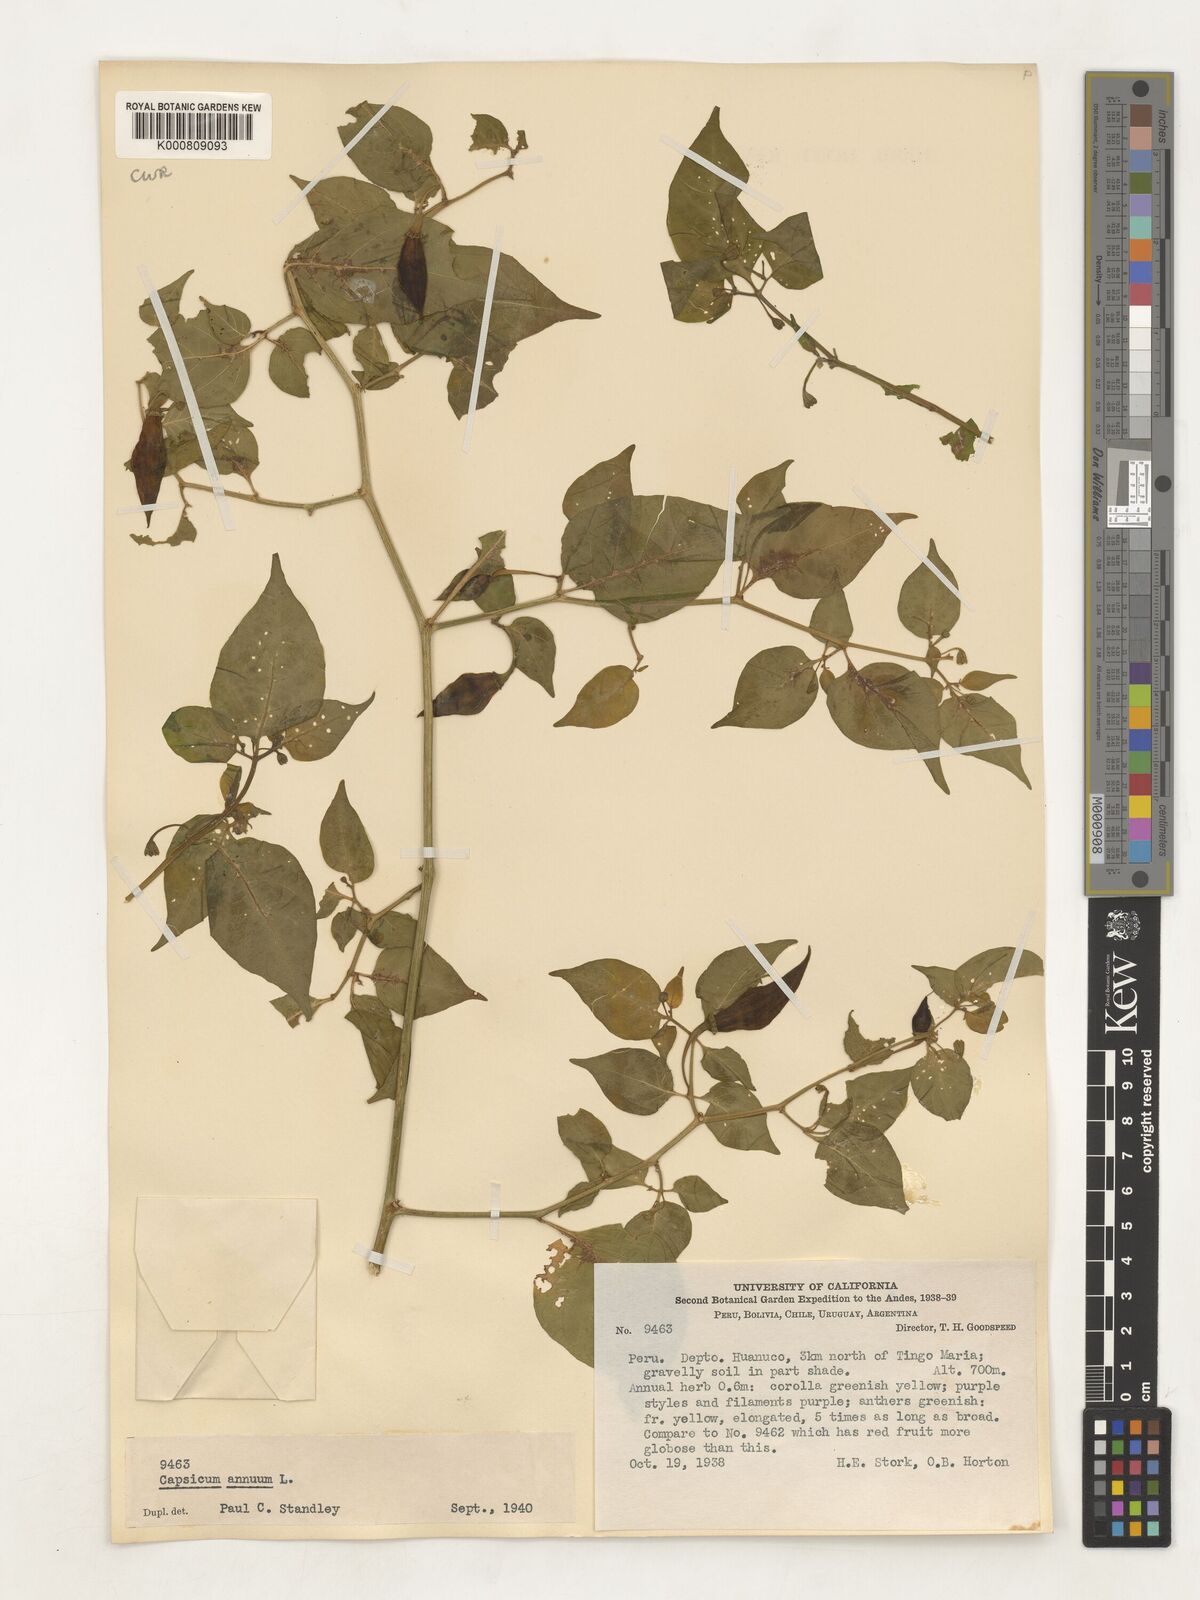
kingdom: Plantae
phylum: Tracheophyta
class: Magnoliopsida
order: Solanales
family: Solanaceae
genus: Capsicum
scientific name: Capsicum annuum
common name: Sweet pepper
